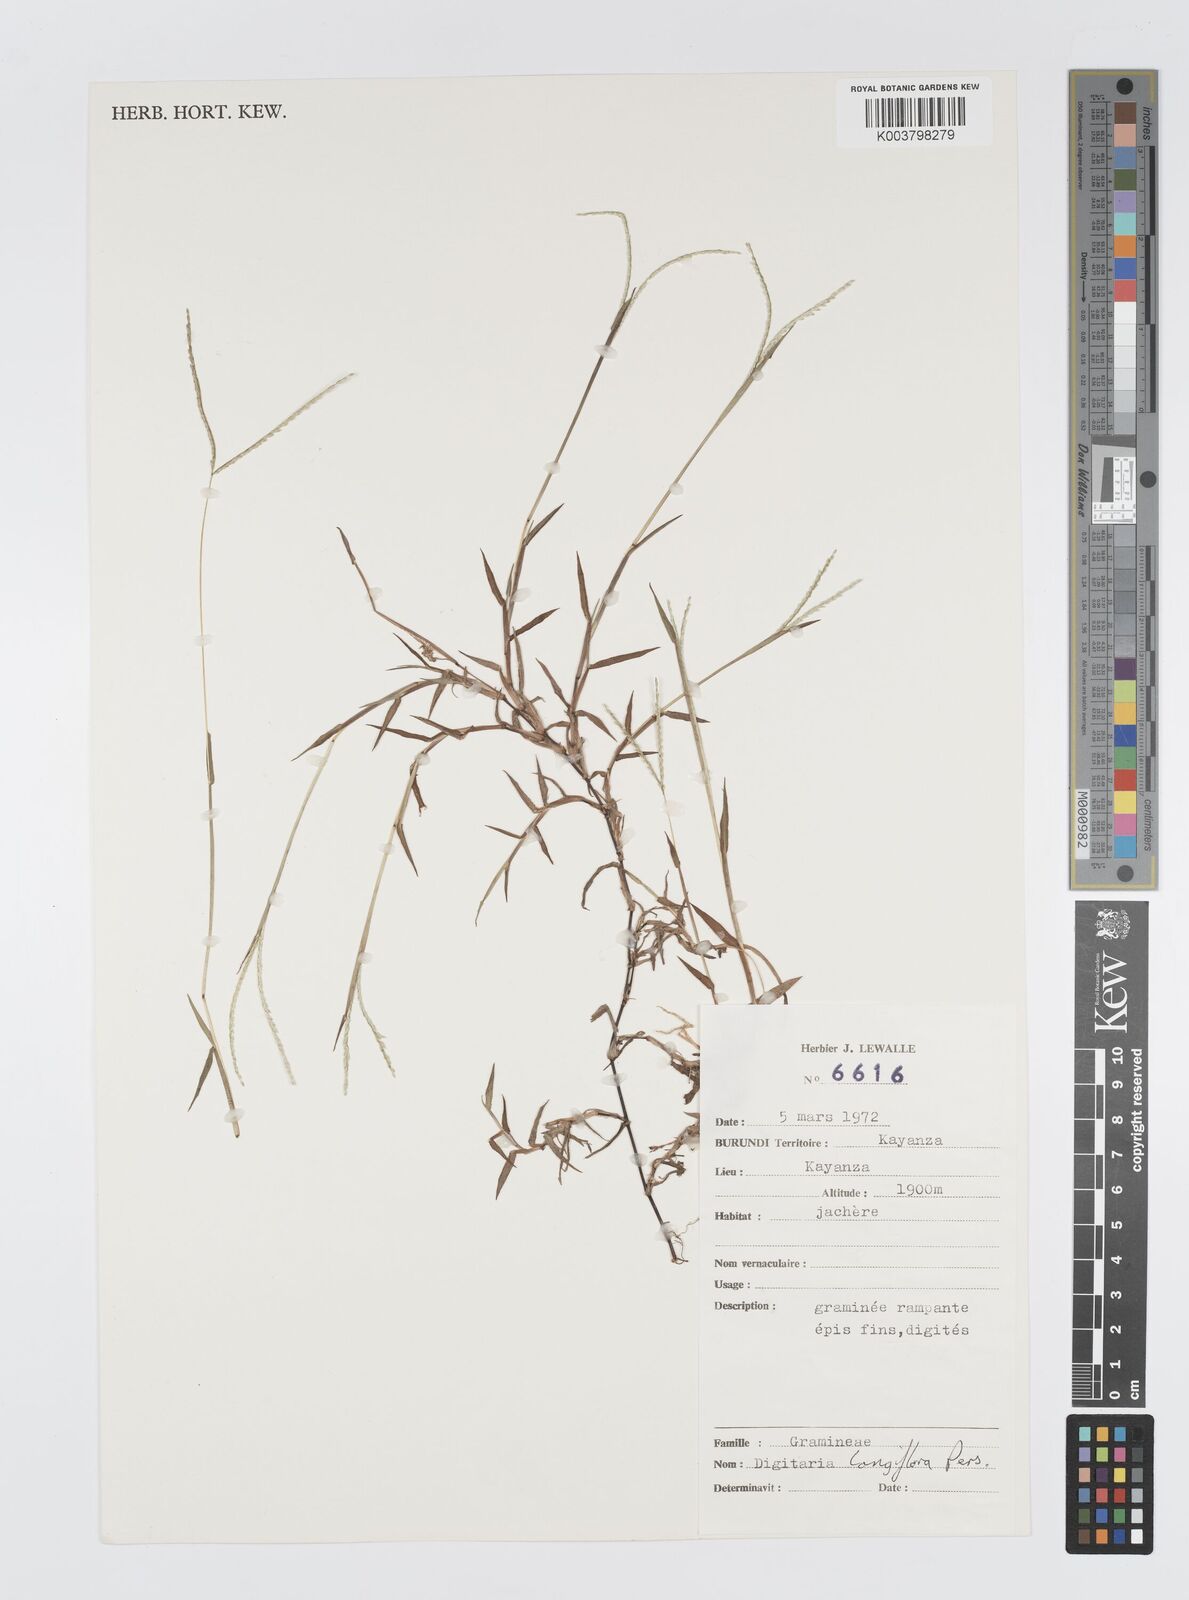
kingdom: Plantae
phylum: Tracheophyta
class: Liliopsida
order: Poales
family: Poaceae
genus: Digitaria
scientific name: Digitaria longiflora
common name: Wire crabgrass
